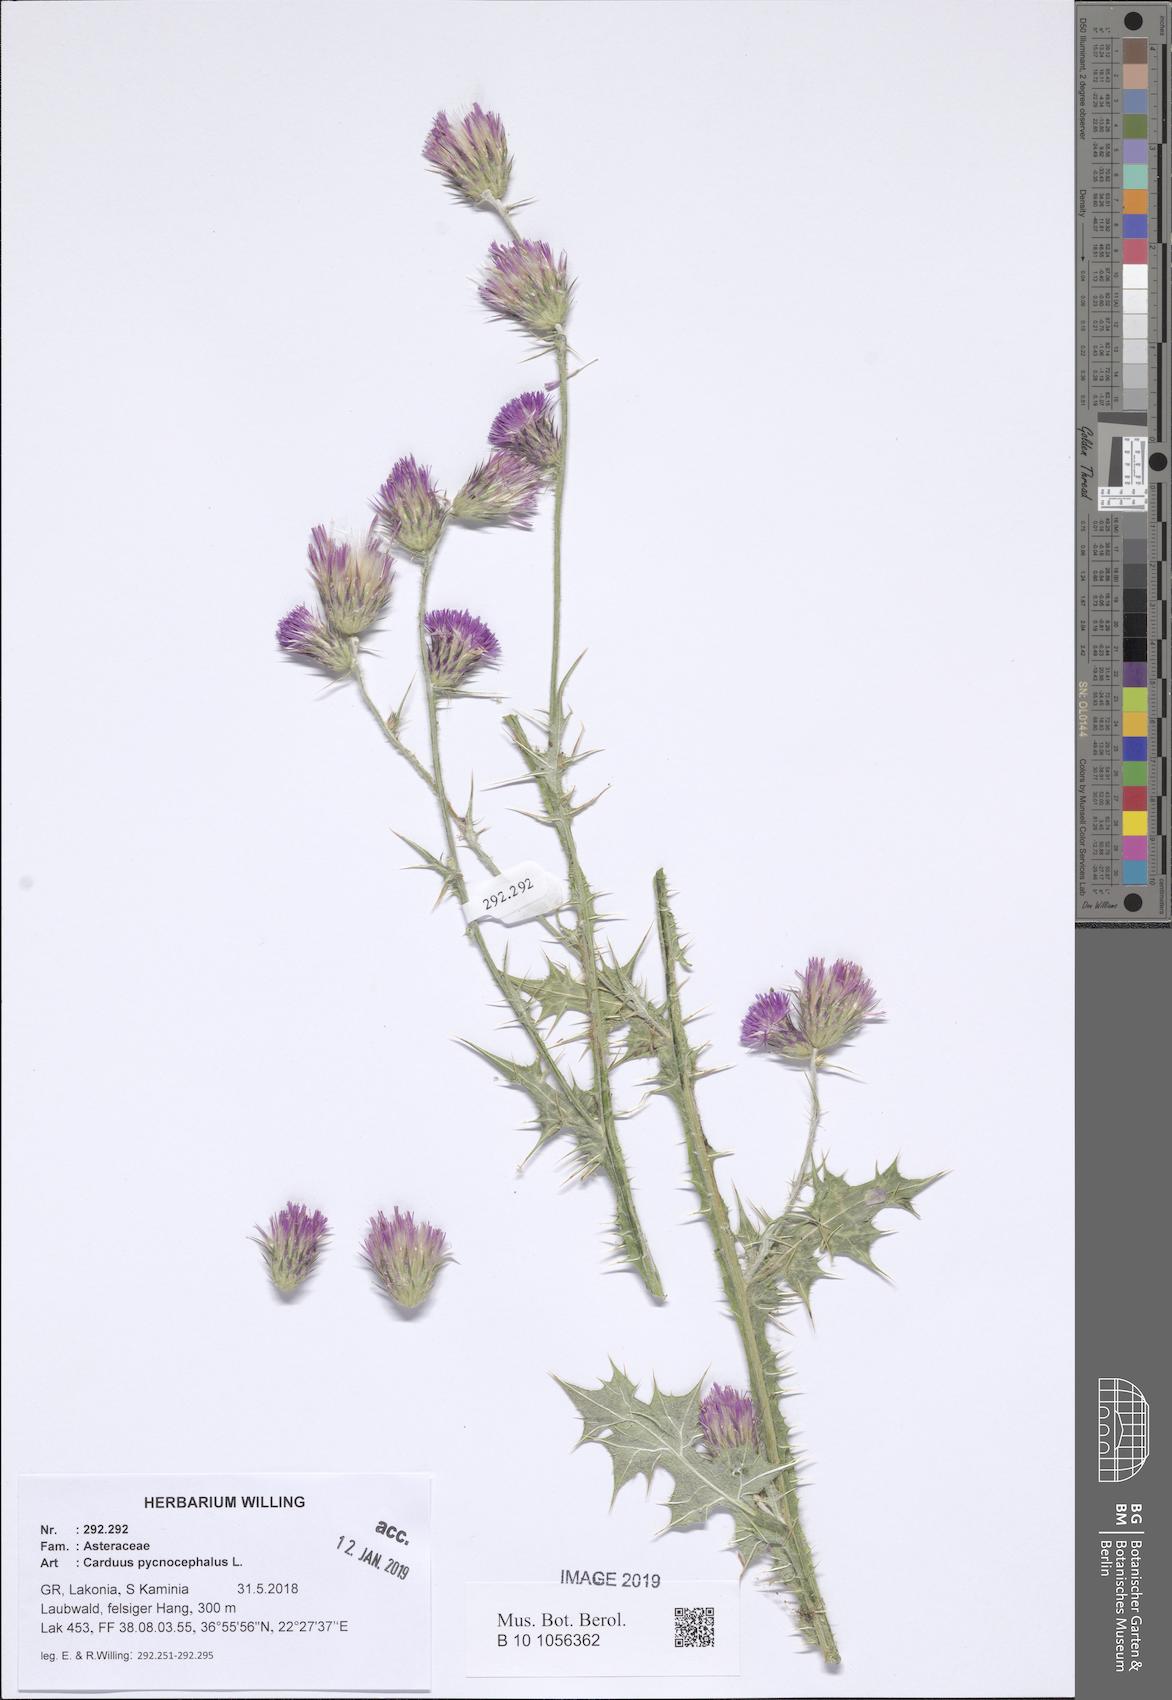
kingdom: Plantae
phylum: Tracheophyta
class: Magnoliopsida
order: Asterales
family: Asteraceae
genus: Carduus
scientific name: Carduus pycnocephalus
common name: Plymouth thistle
